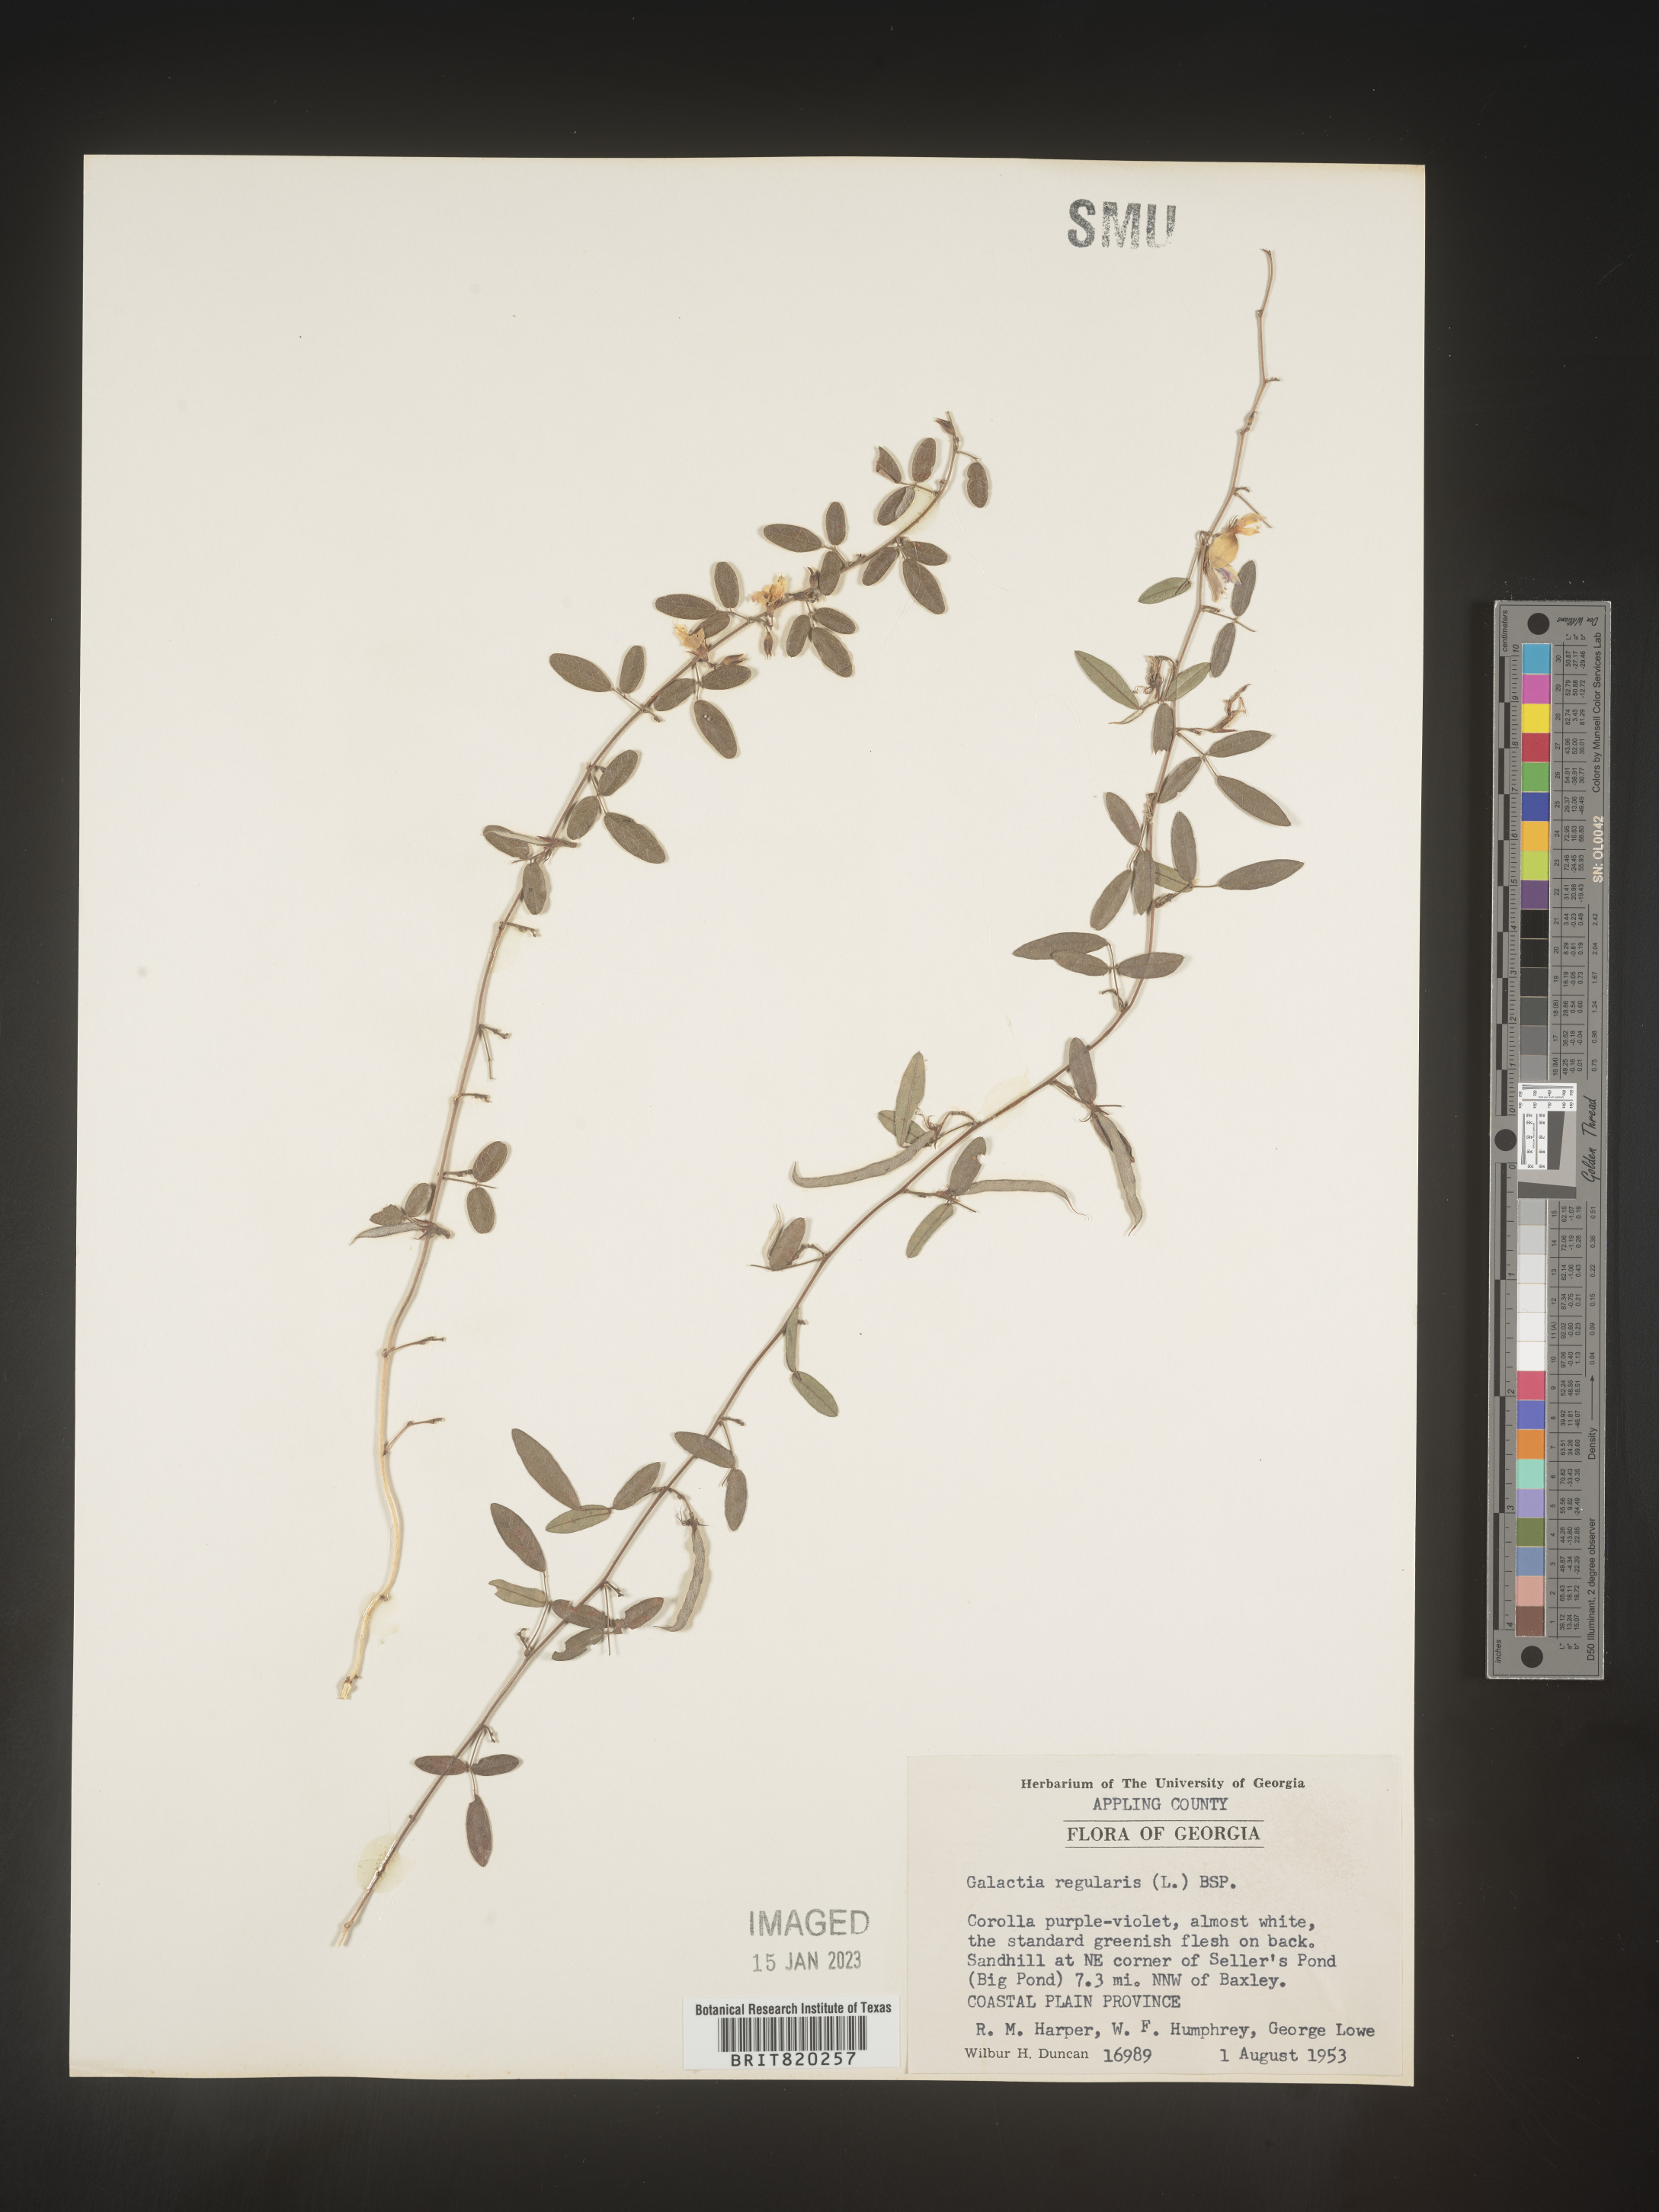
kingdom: Plantae
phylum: Tracheophyta
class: Magnoliopsida
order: Fabales
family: Fabaceae
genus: Galactia
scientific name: Galactia microphylla
